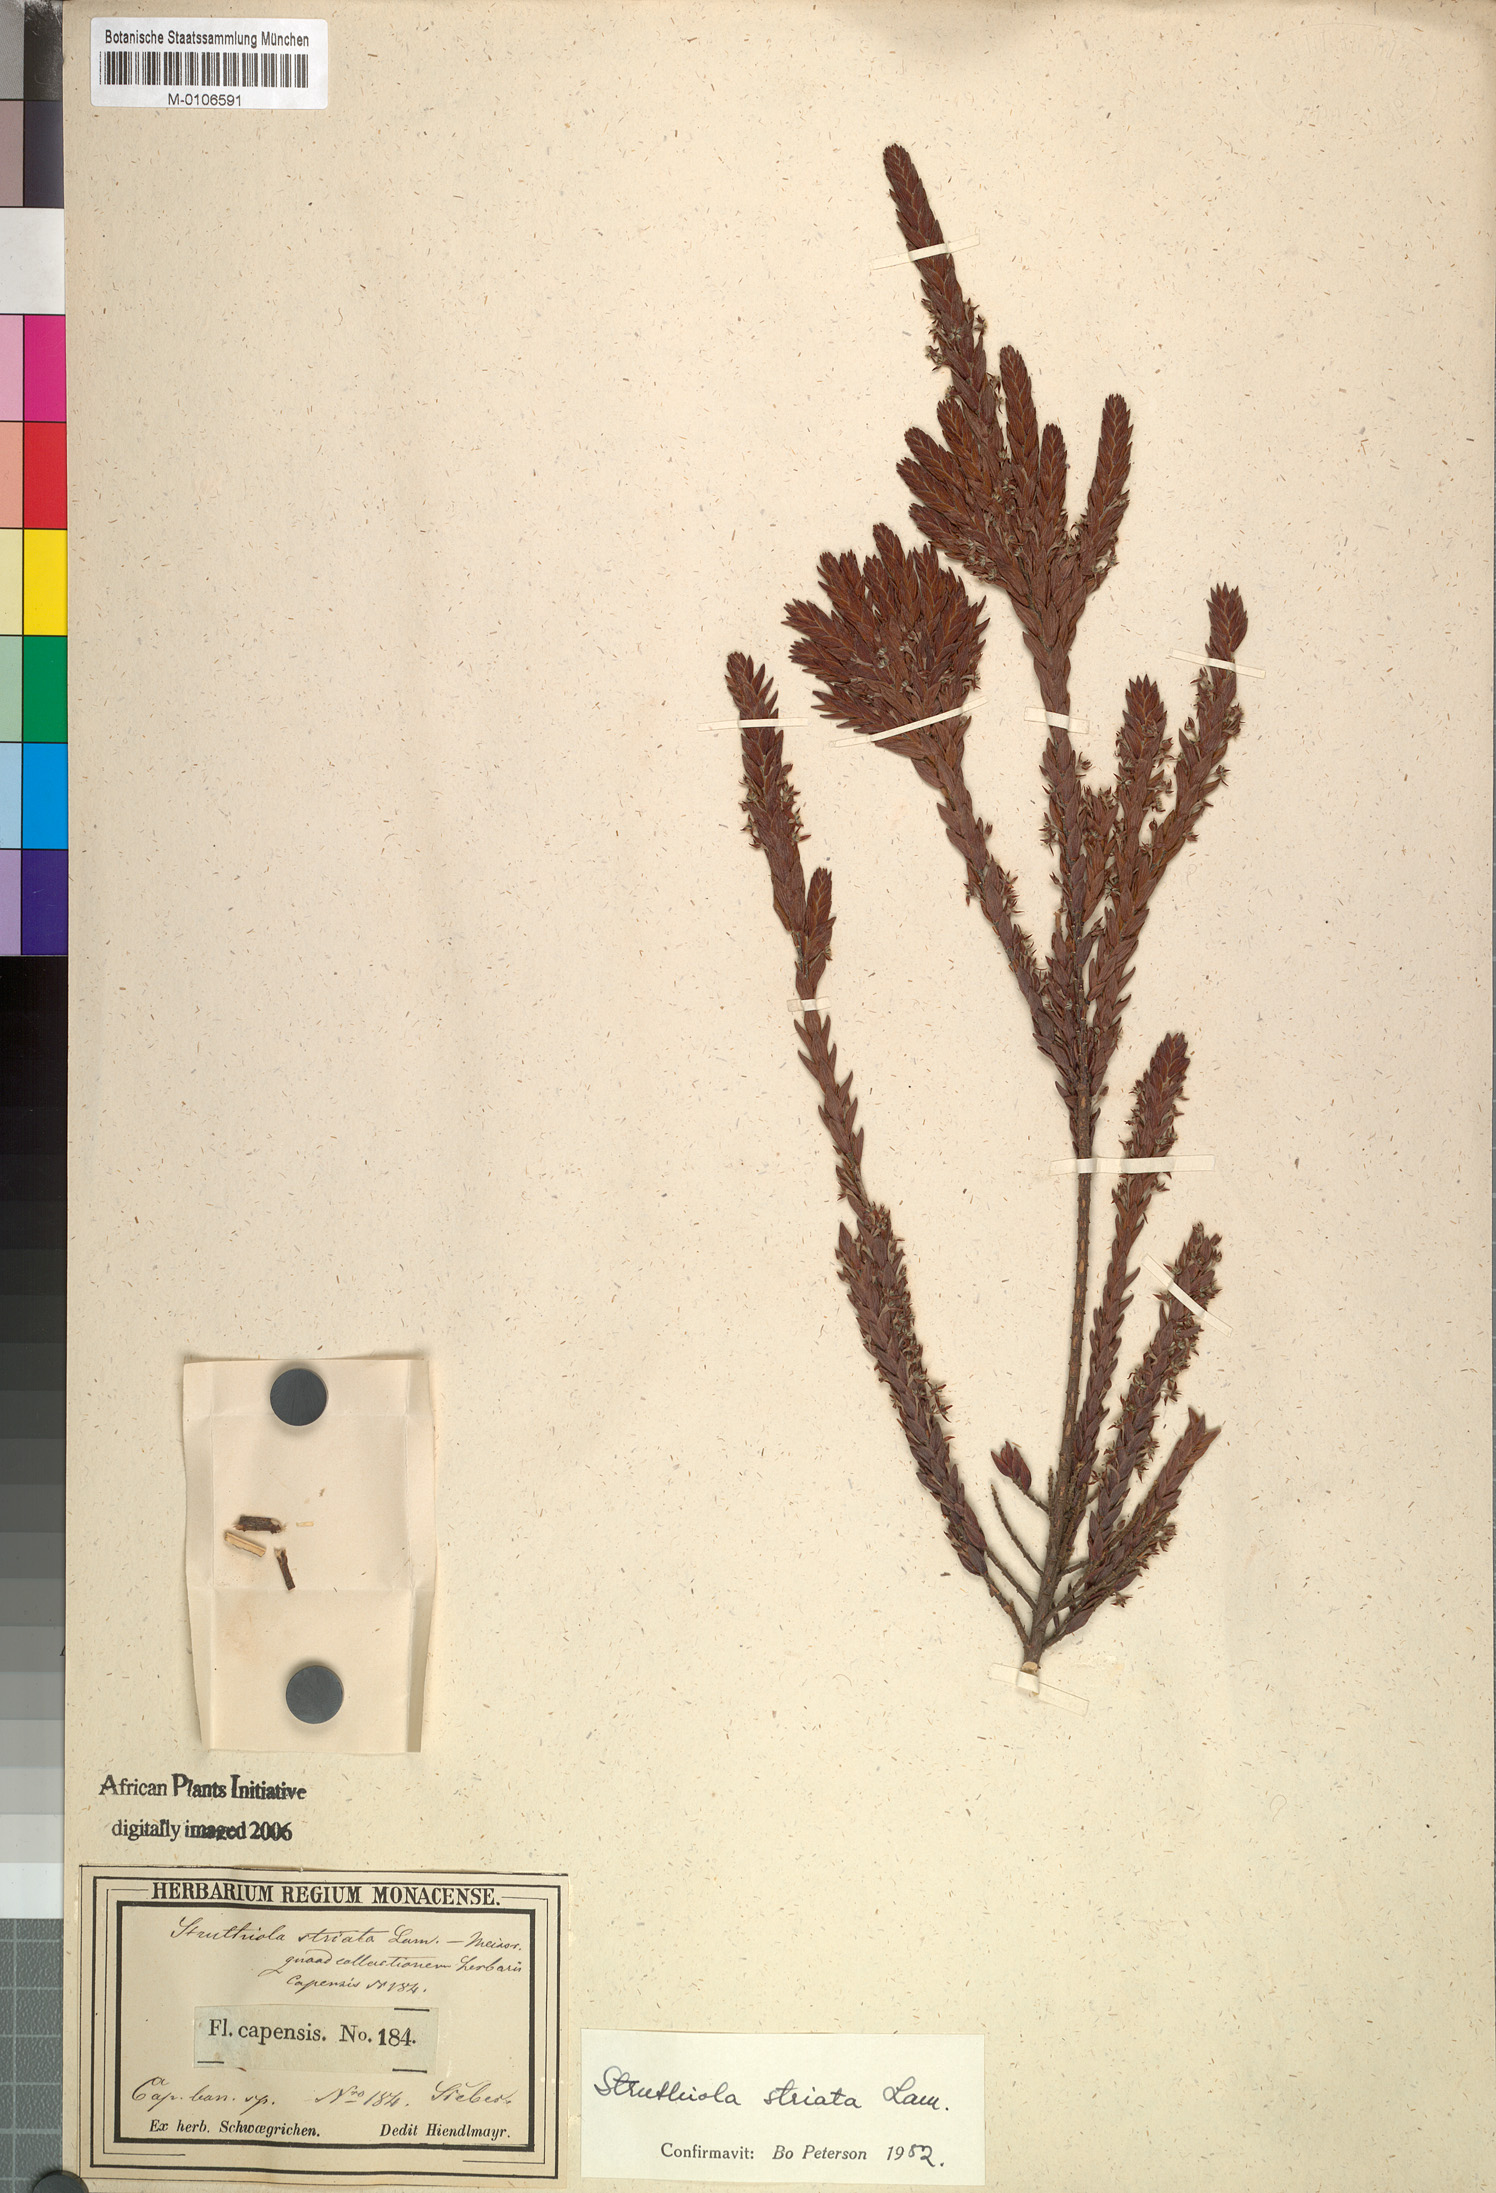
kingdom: Plantae
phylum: Tracheophyta
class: Magnoliopsida
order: Malvales
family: Thymelaeaceae
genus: Struthiola
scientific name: Struthiola striata
